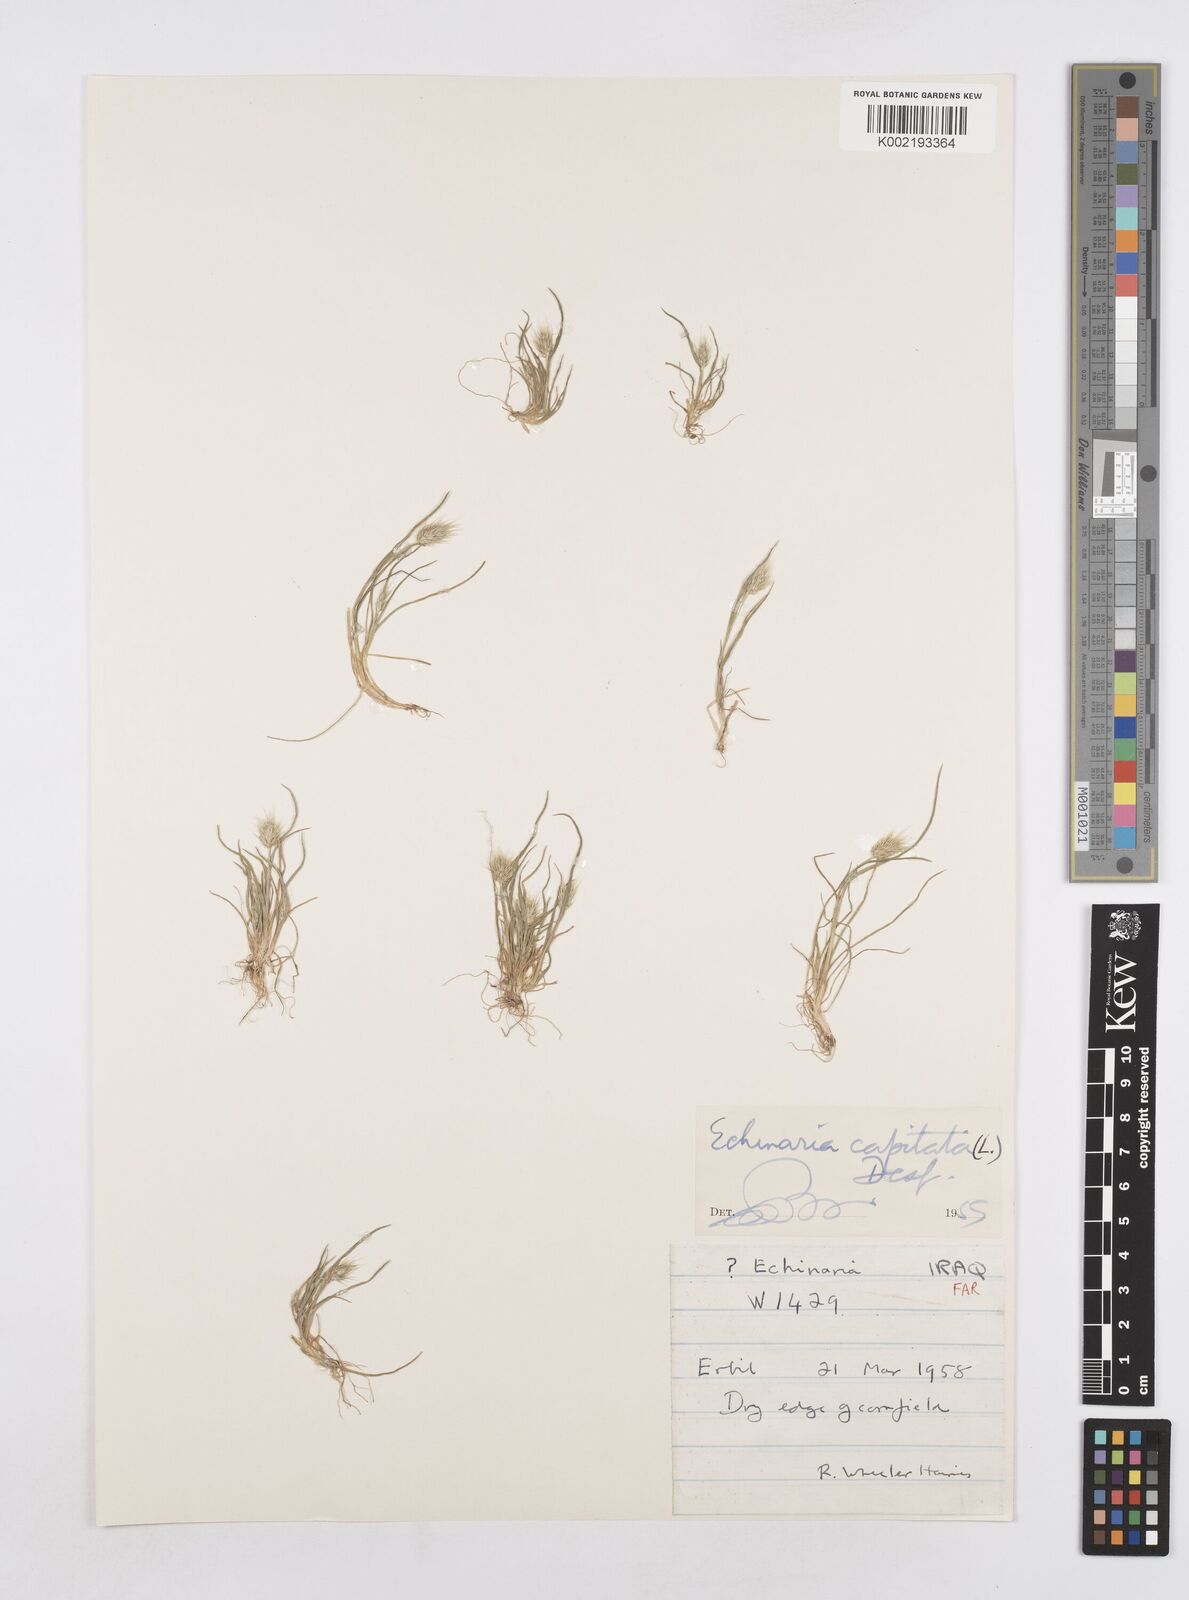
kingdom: Plantae
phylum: Tracheophyta
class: Liliopsida
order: Poales
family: Poaceae
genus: Echinaria
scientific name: Echinaria capitata
